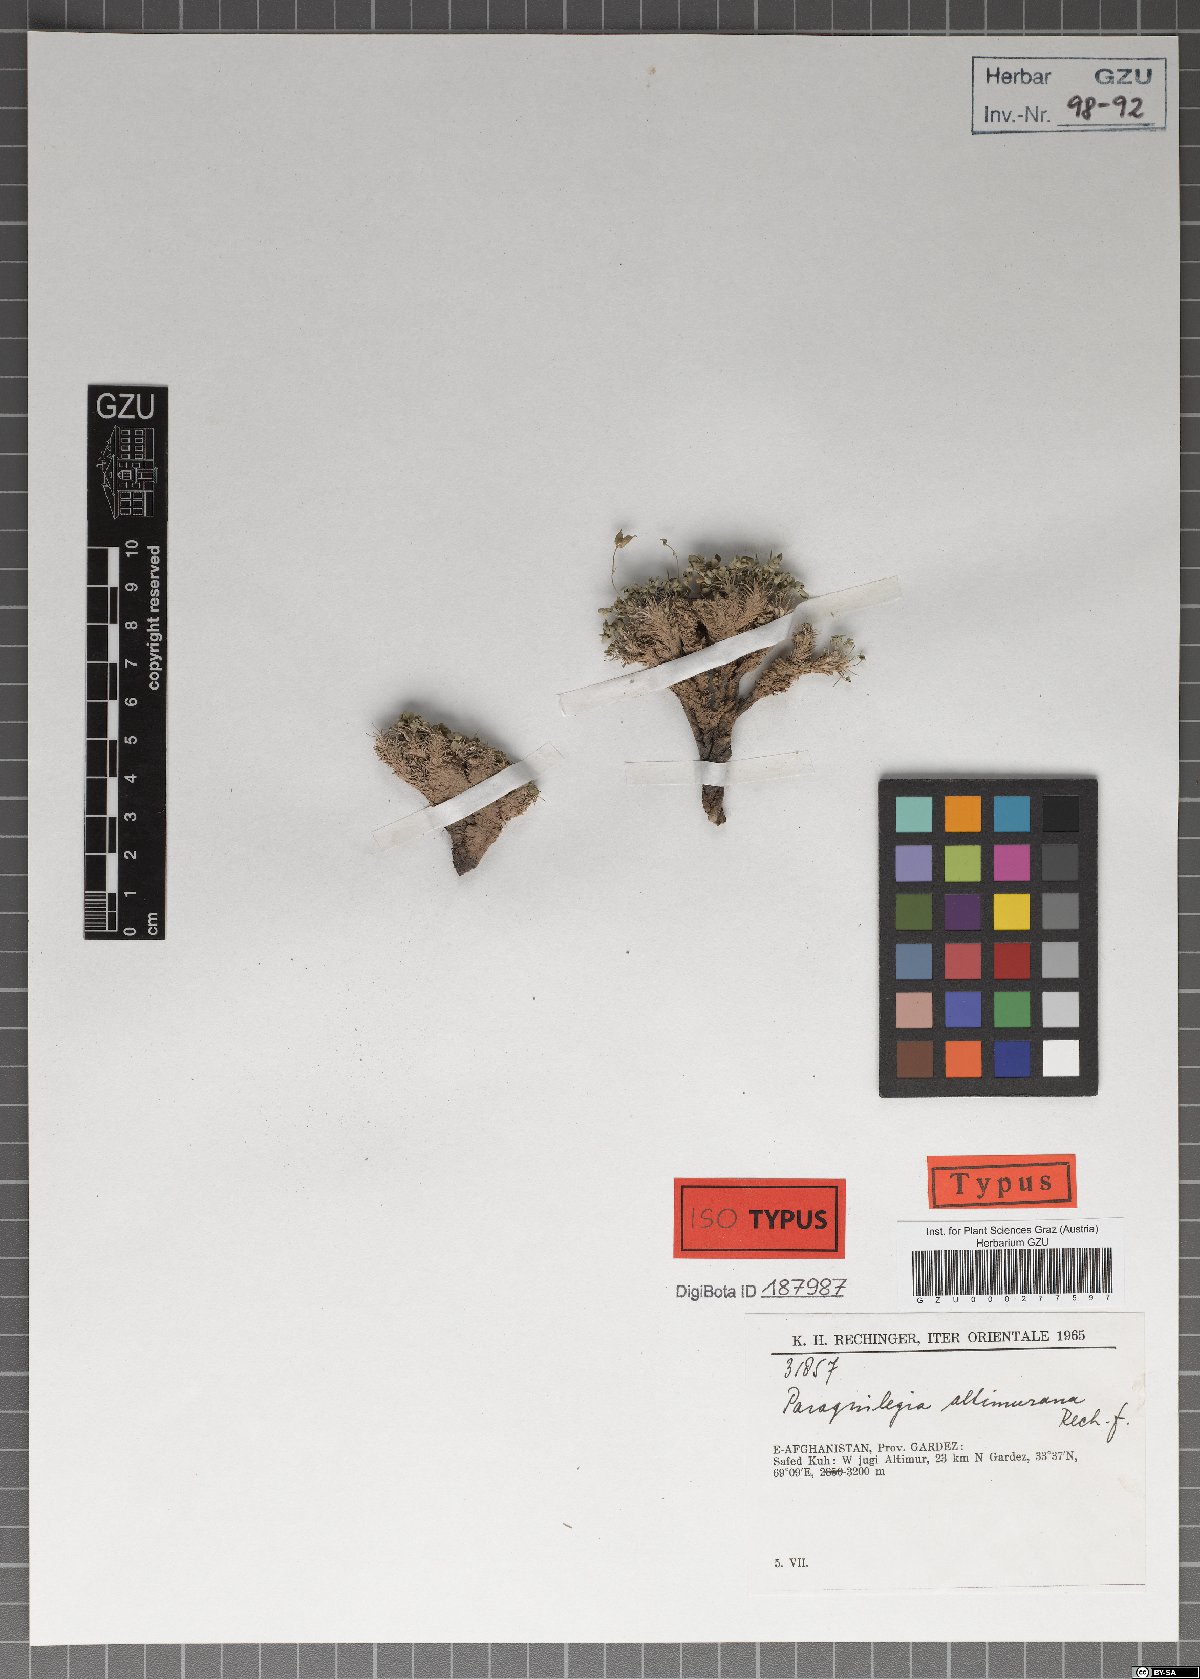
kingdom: Plantae
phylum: Tracheophyta
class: Magnoliopsida
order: Ranunculales
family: Ranunculaceae
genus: Paraquilegia
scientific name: Paraquilegia altimurana
